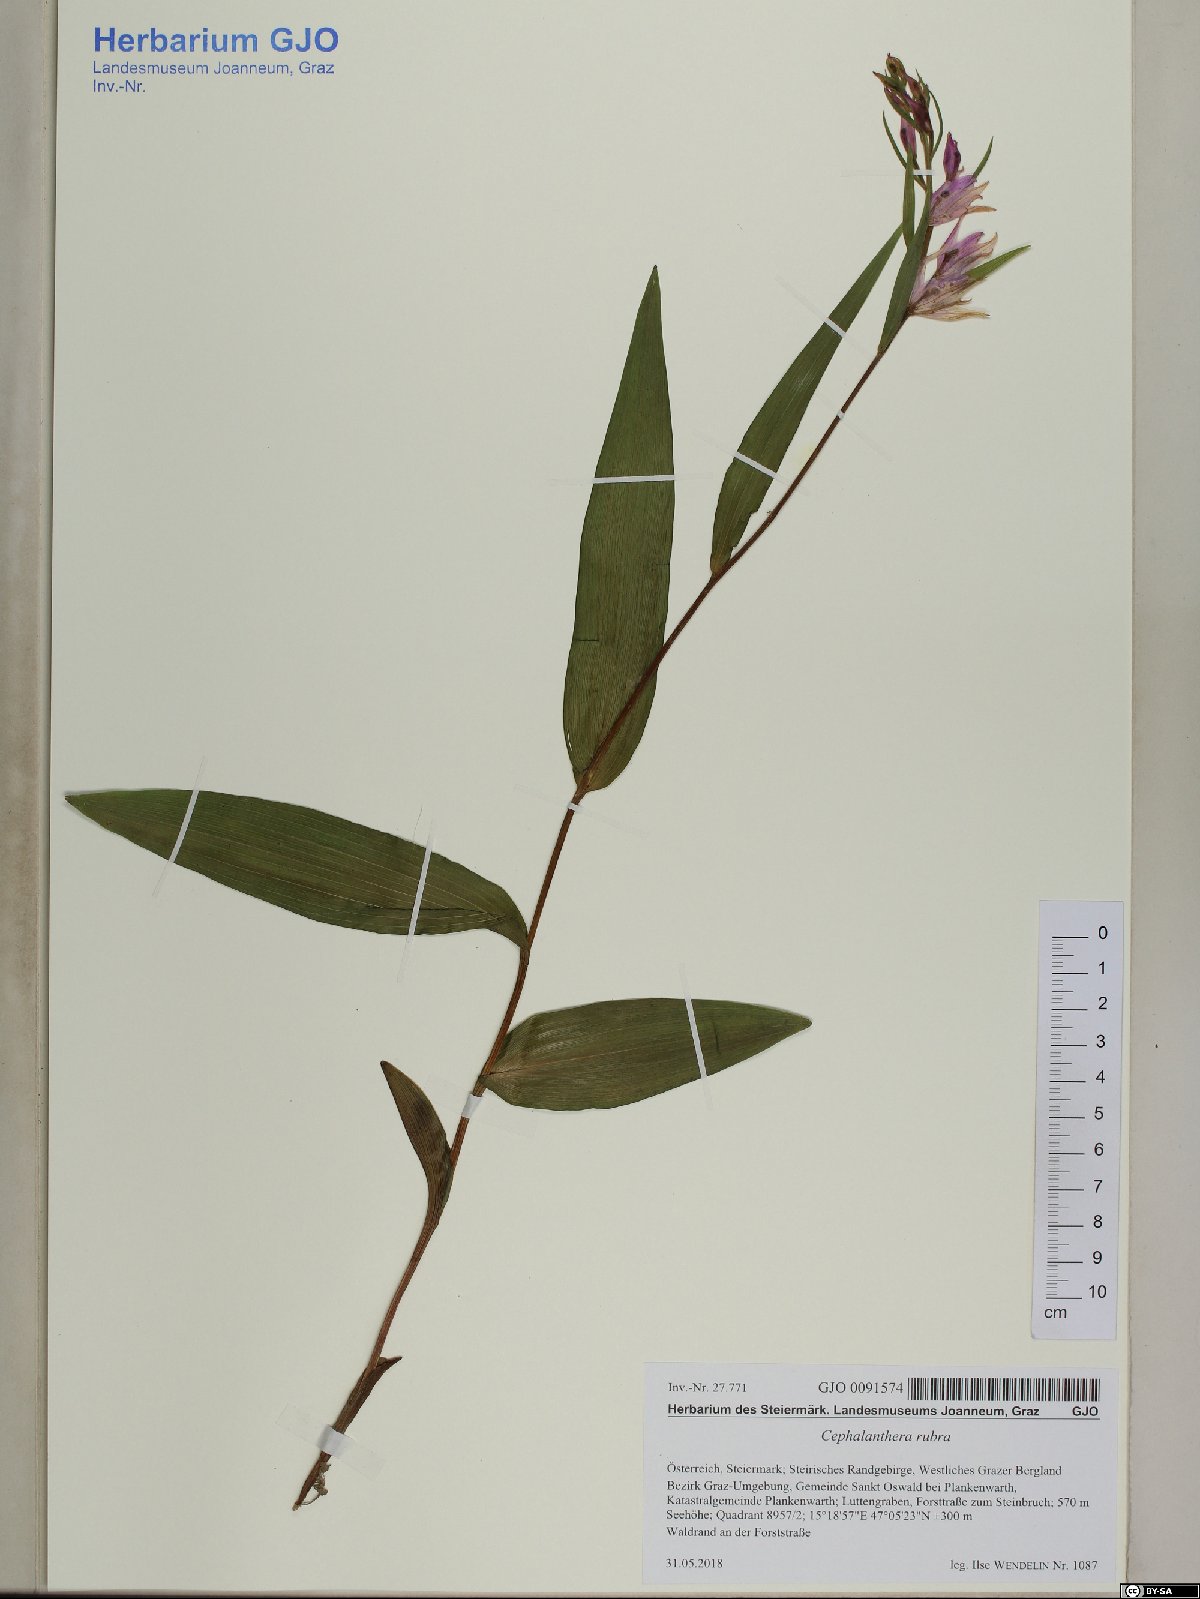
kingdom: Plantae
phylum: Tracheophyta
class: Liliopsida
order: Asparagales
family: Orchidaceae
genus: Cephalanthera
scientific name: Cephalanthera rubra
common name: Red helleborine
